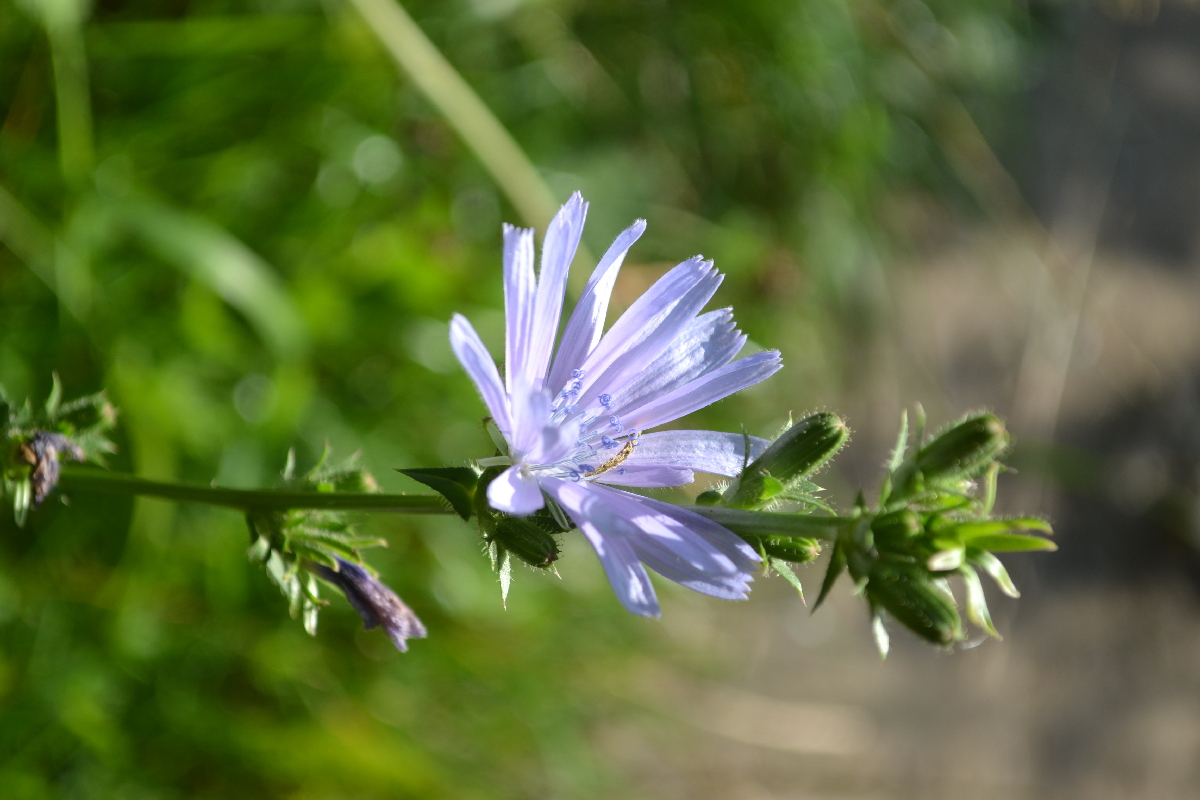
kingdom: Plantae
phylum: Tracheophyta
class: Magnoliopsida
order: Asterales
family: Asteraceae
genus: Cichorium
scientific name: Cichorium intybus
